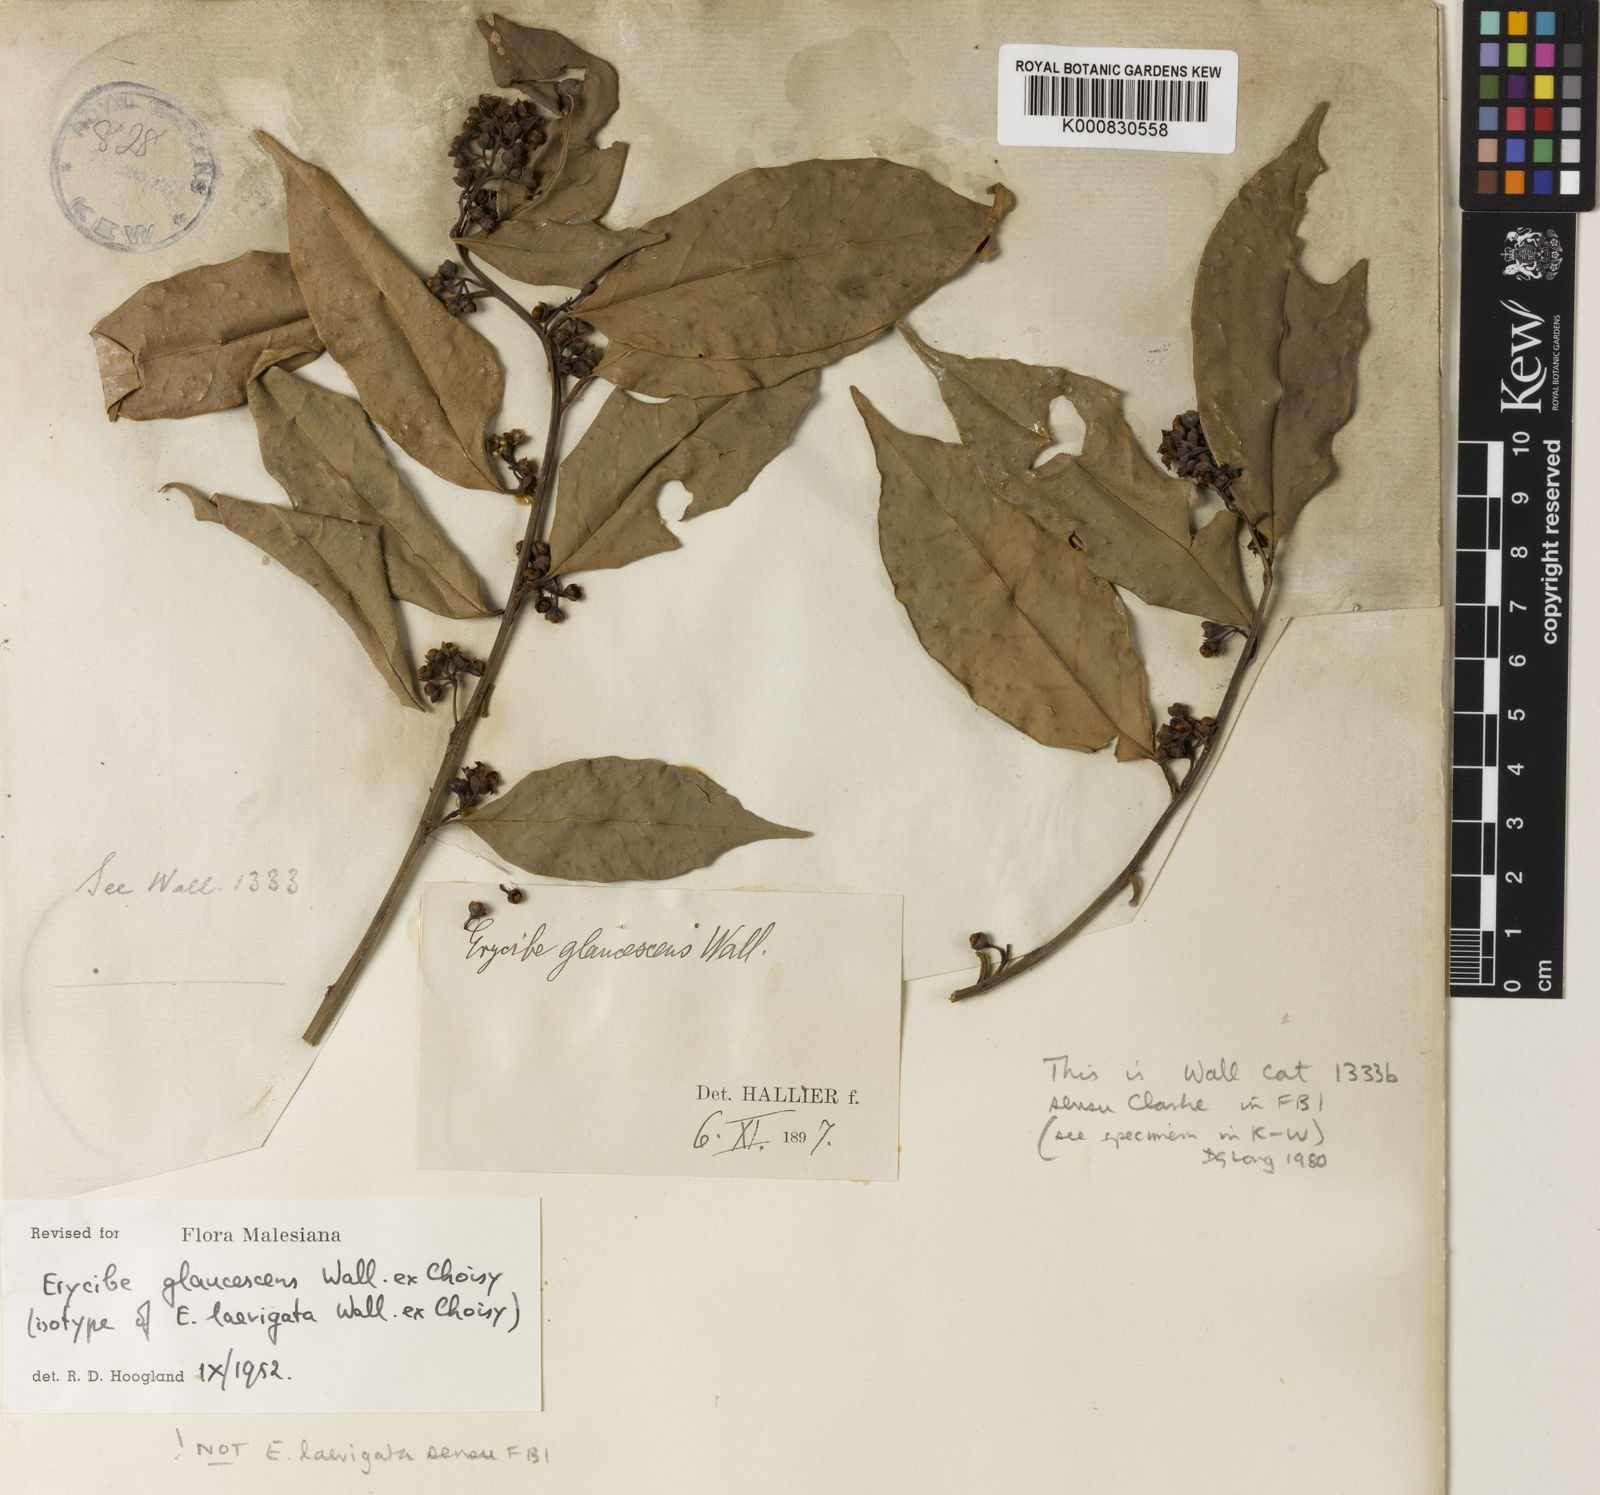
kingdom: Plantae
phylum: Tracheophyta
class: Magnoliopsida
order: Solanales
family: Convolvulaceae
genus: Erycibe
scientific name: Erycibe
